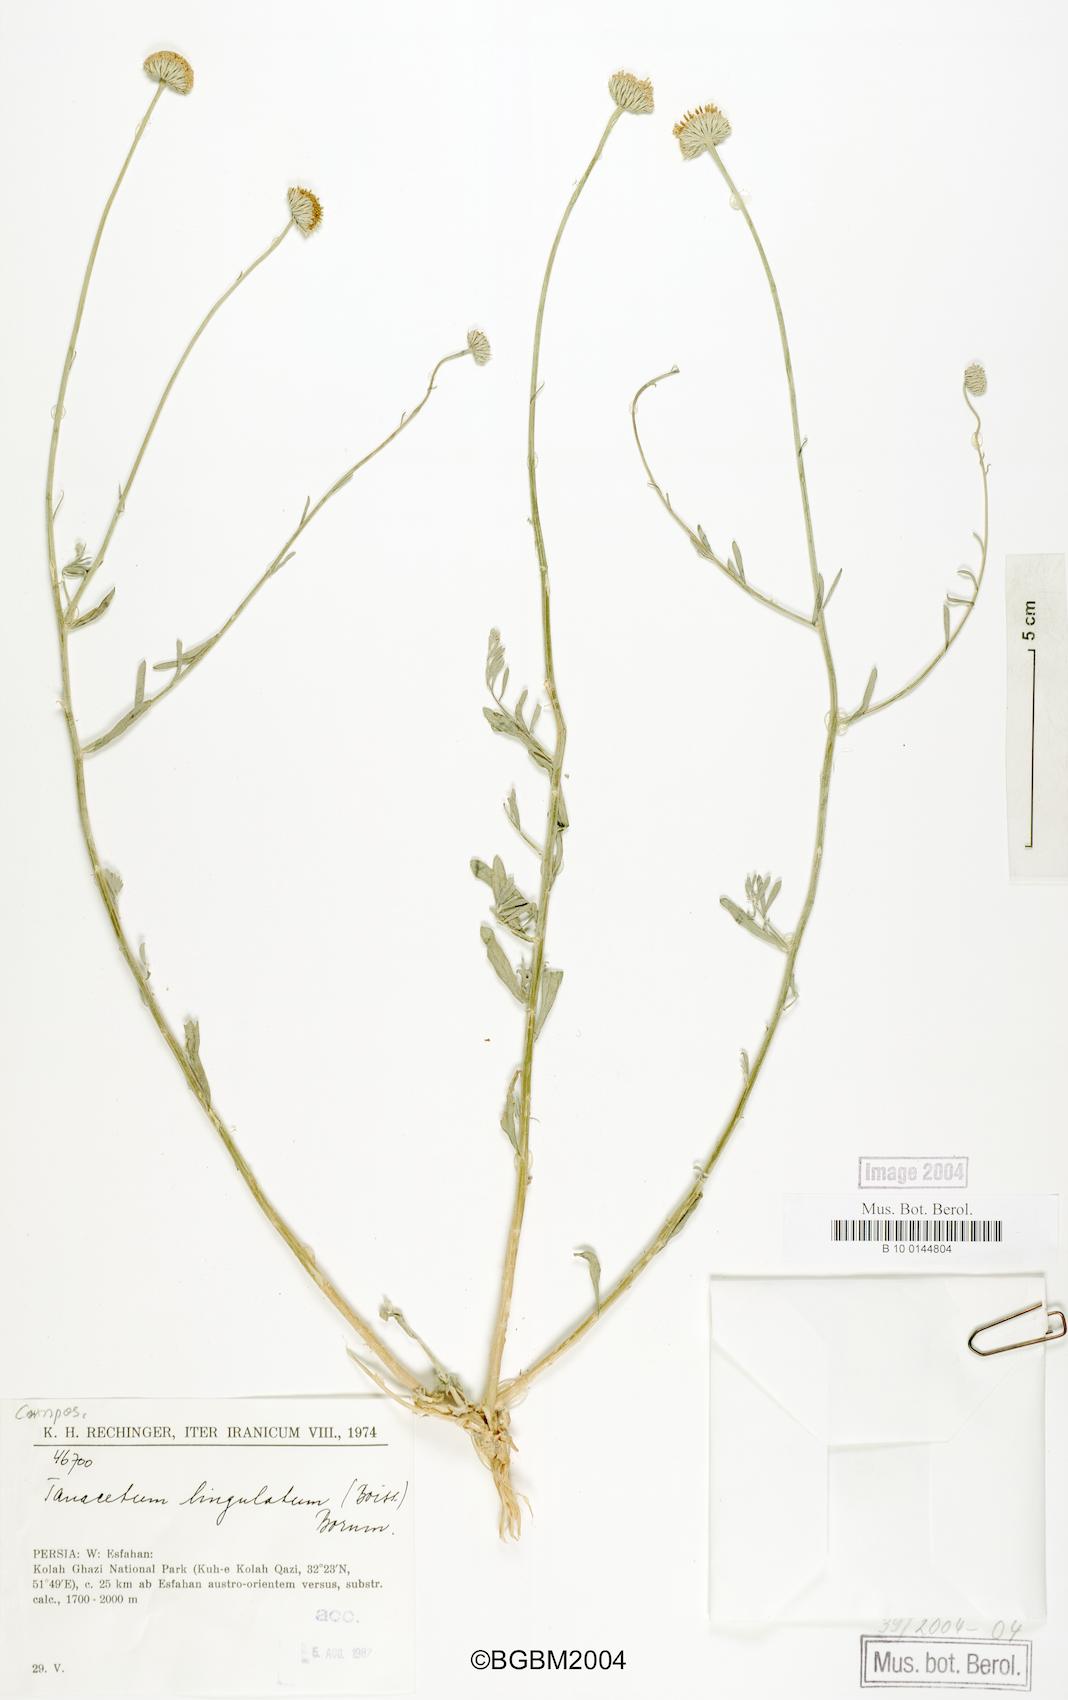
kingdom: Plantae
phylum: Tracheophyta
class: Magnoliopsida
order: Asterales
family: Asteraceae
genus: Xylanthemum
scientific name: Xylanthemum lingulatum
